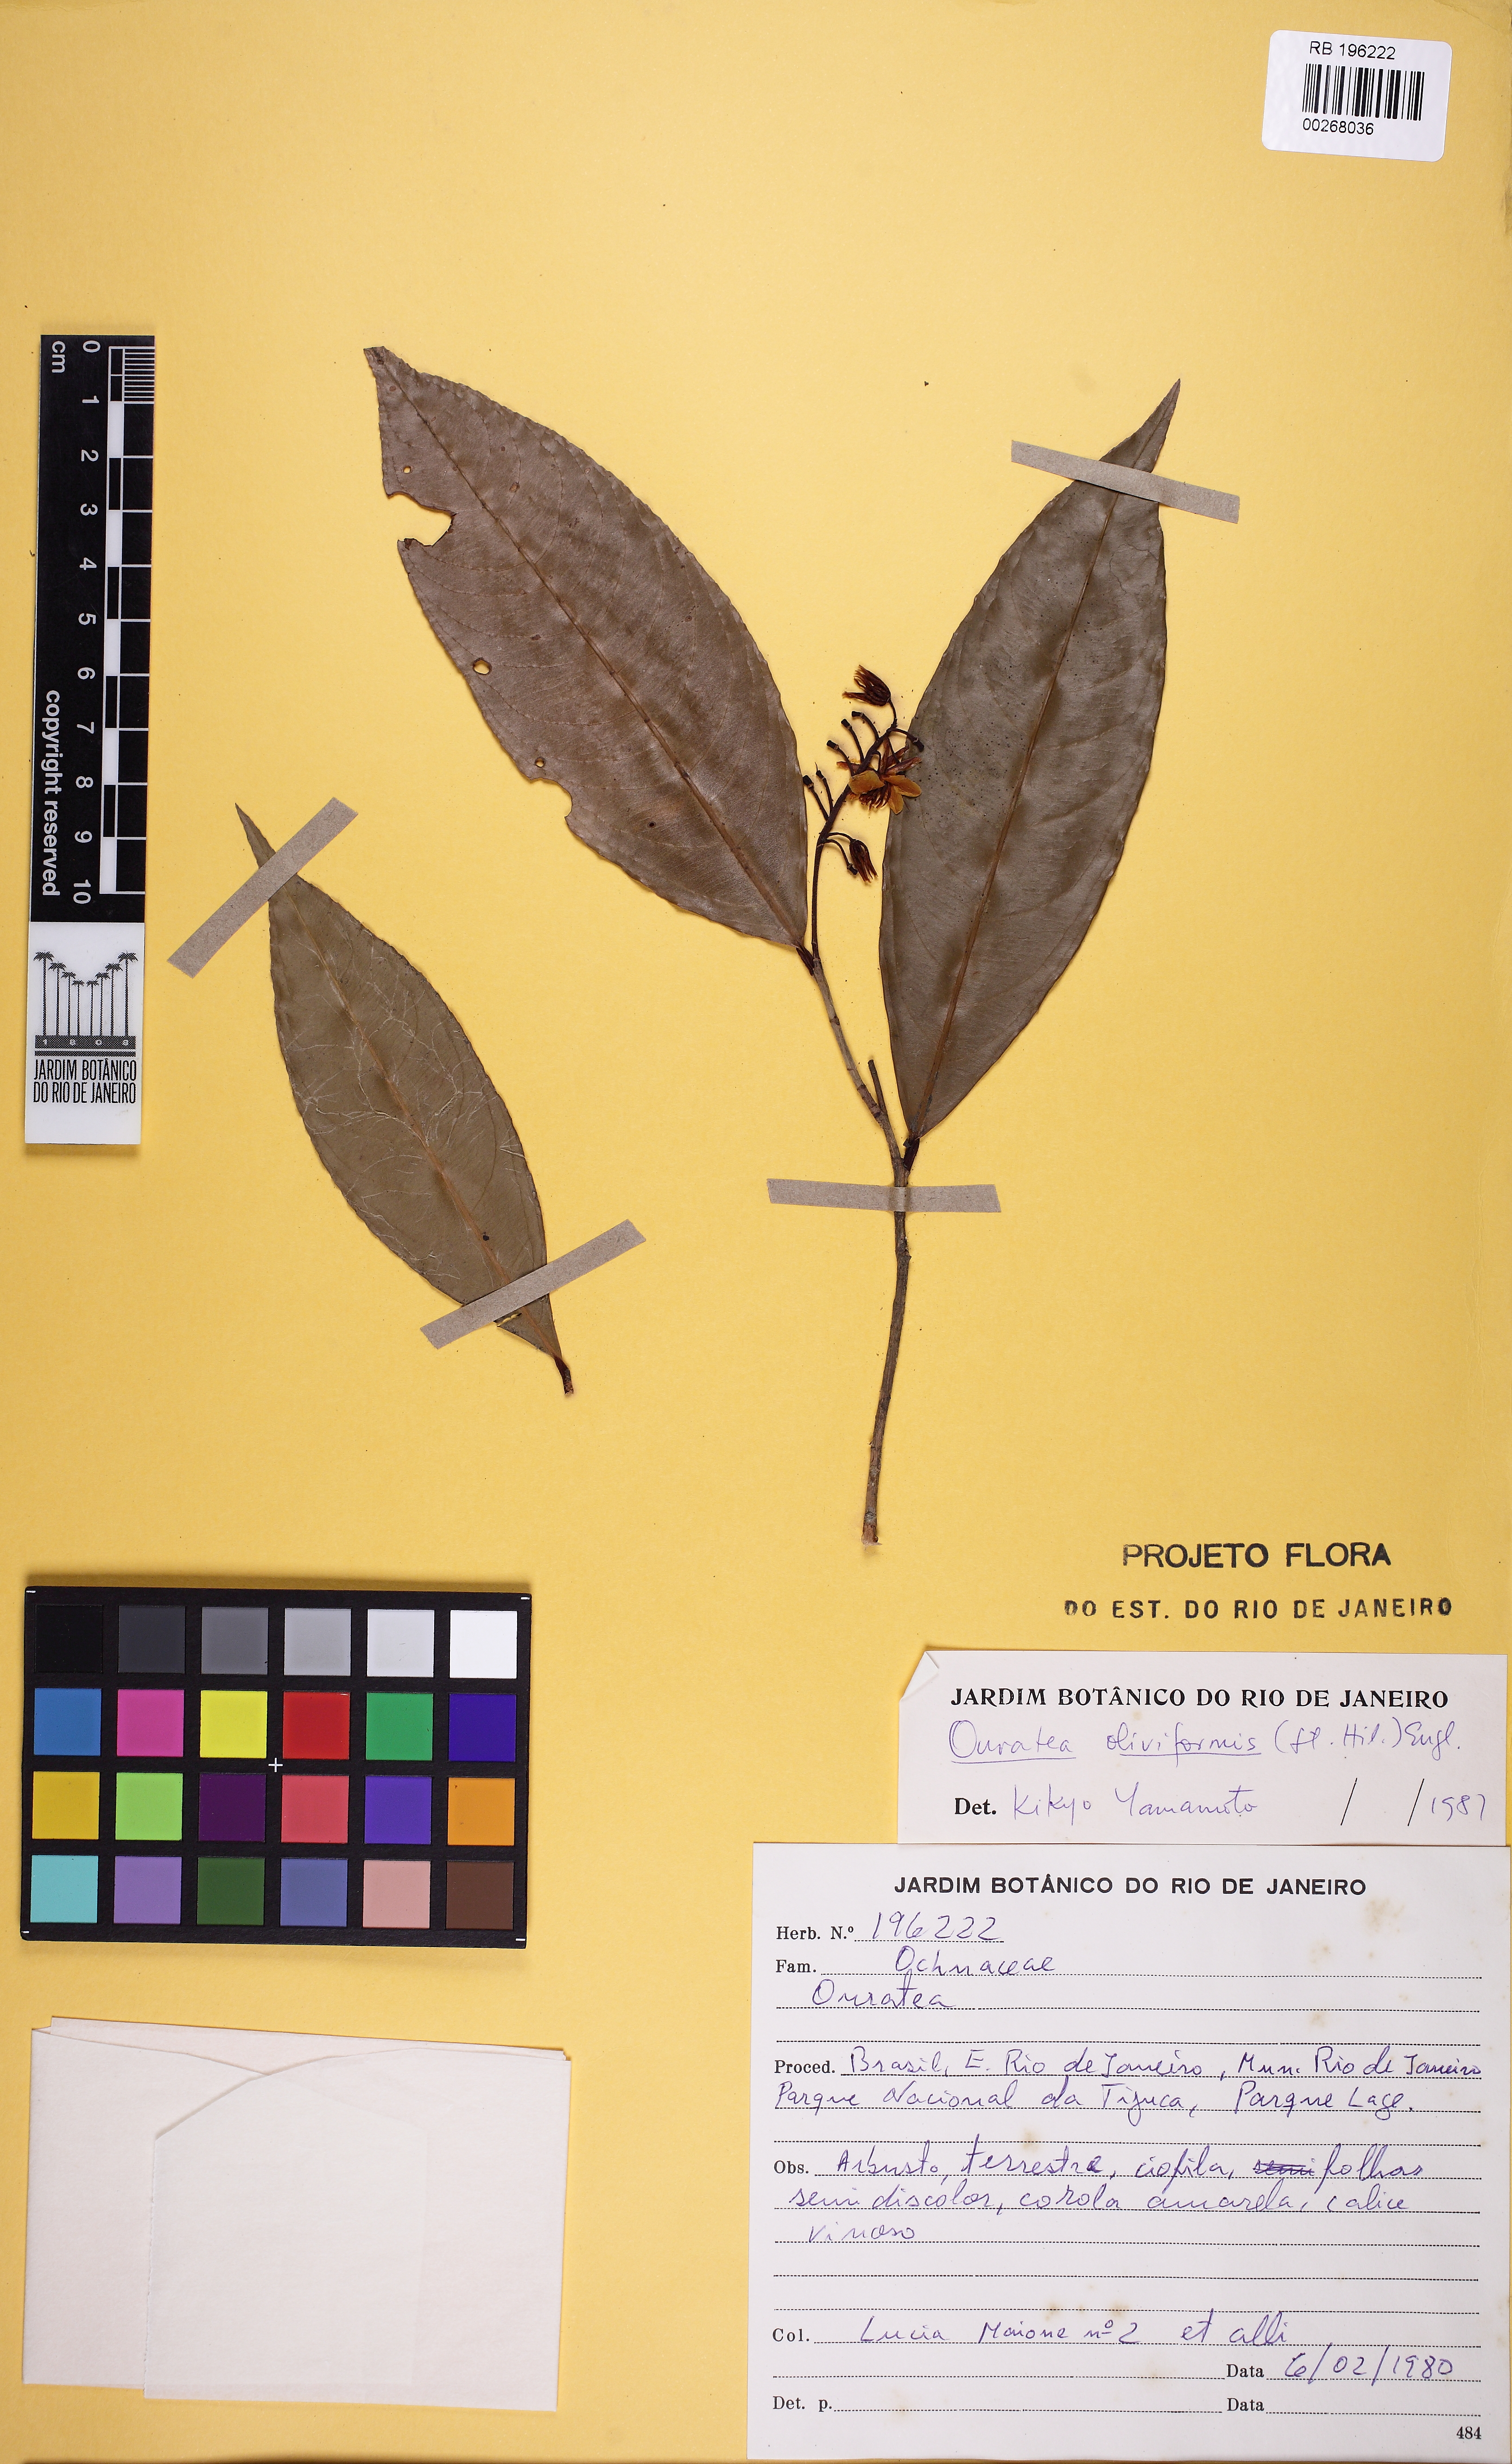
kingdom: Plantae
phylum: Tracheophyta
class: Magnoliopsida
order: Malpighiales
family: Ochnaceae
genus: Ouratea
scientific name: Ouratea oliviformis
